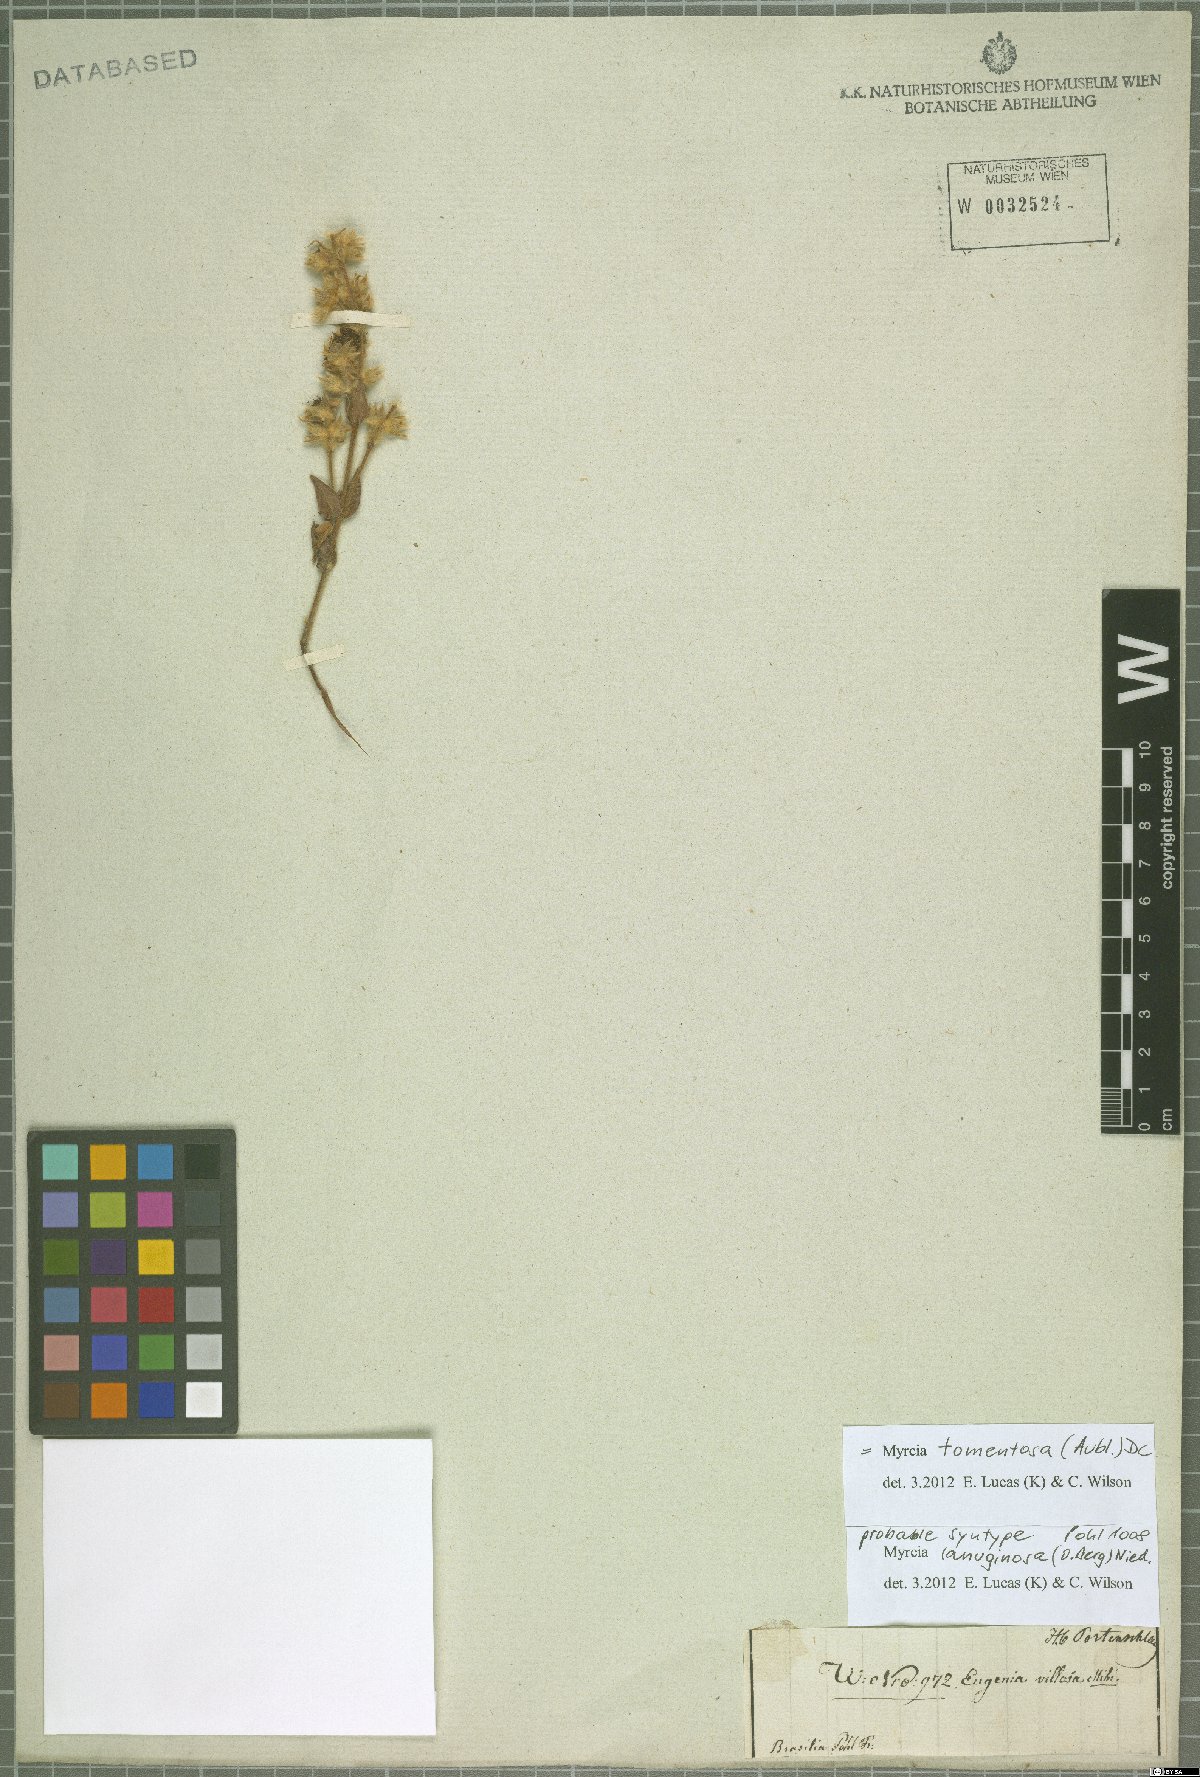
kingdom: Plantae
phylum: Tracheophyta
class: Magnoliopsida
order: Myrtales
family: Myrtaceae
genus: Myrcia
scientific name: Myrcia lanuginosa
